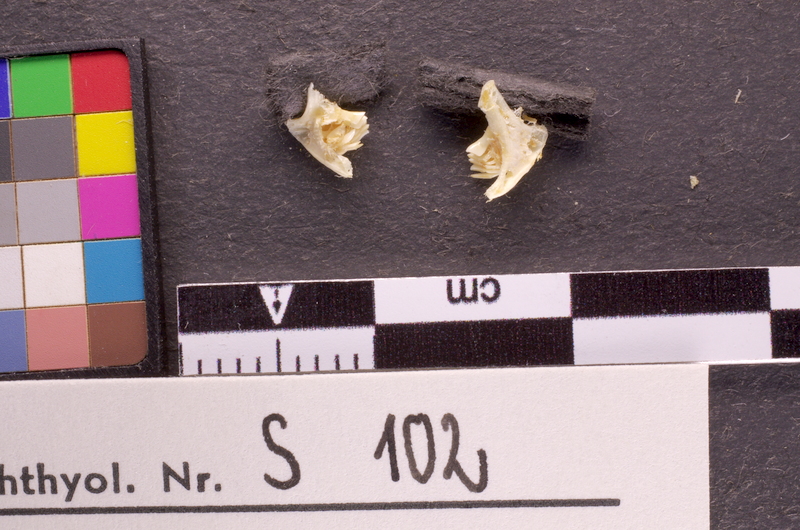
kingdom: Animalia
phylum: Chordata
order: Cypriniformes
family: Cyprinidae
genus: Labeo
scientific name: Labeo coubie
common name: African carp
